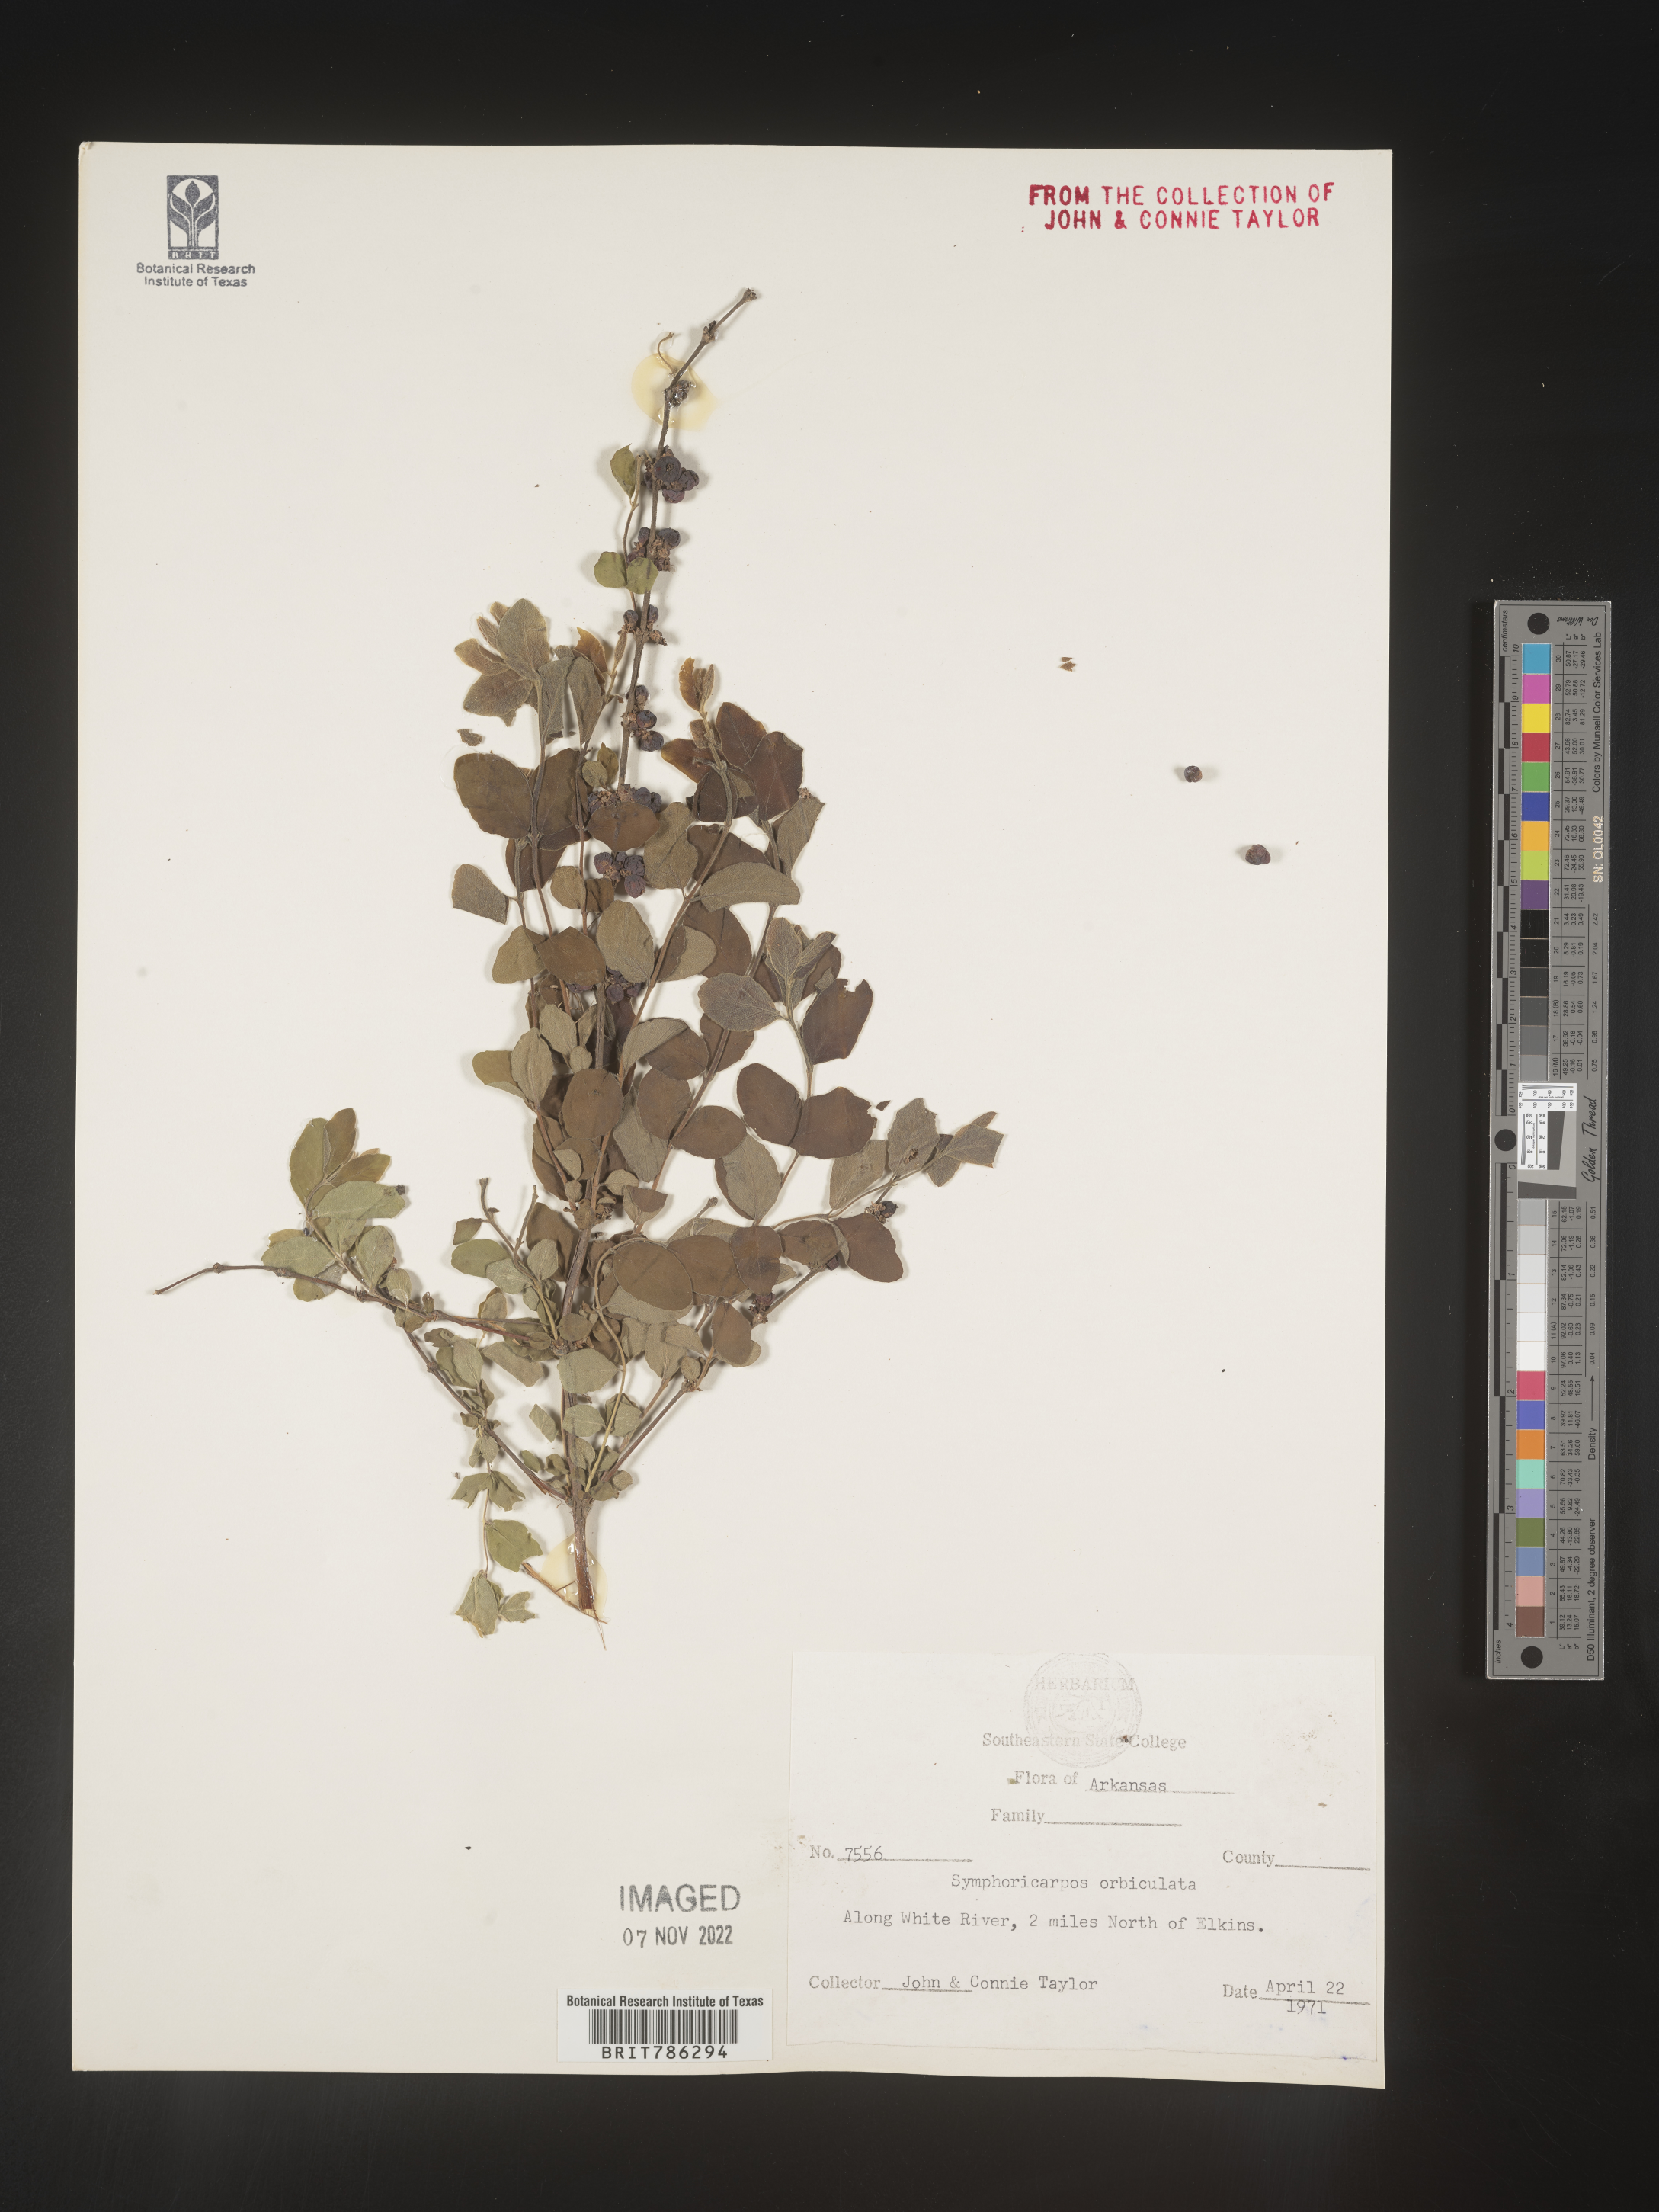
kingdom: Plantae
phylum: Tracheophyta
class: Magnoliopsida
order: Dipsacales
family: Caprifoliaceae
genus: Symphoricarpos
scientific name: Symphoricarpos orbiculatus
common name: Coralberry
